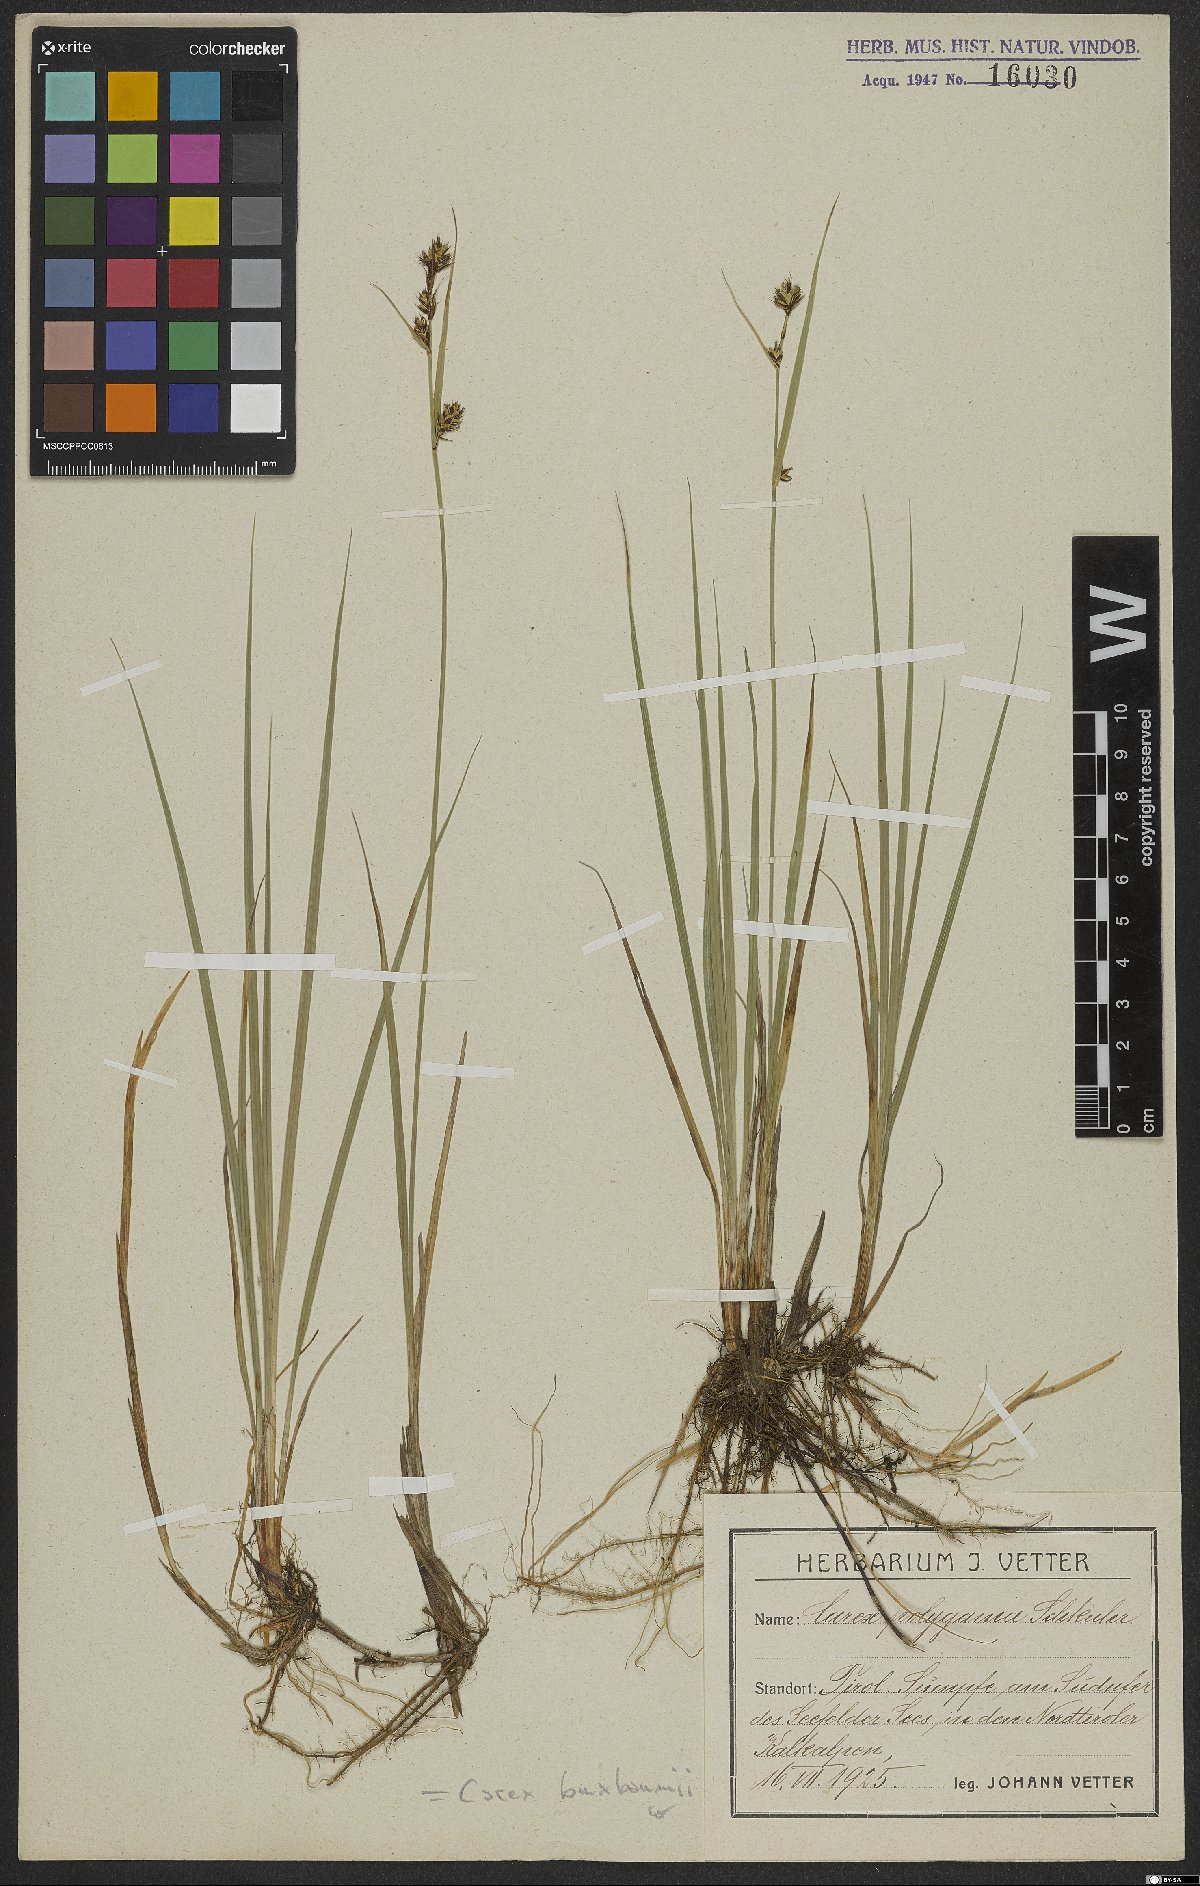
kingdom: Plantae
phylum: Tracheophyta
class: Liliopsida
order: Poales
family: Cyperaceae
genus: Carex
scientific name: Carex buxbaumii
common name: Club sedge
